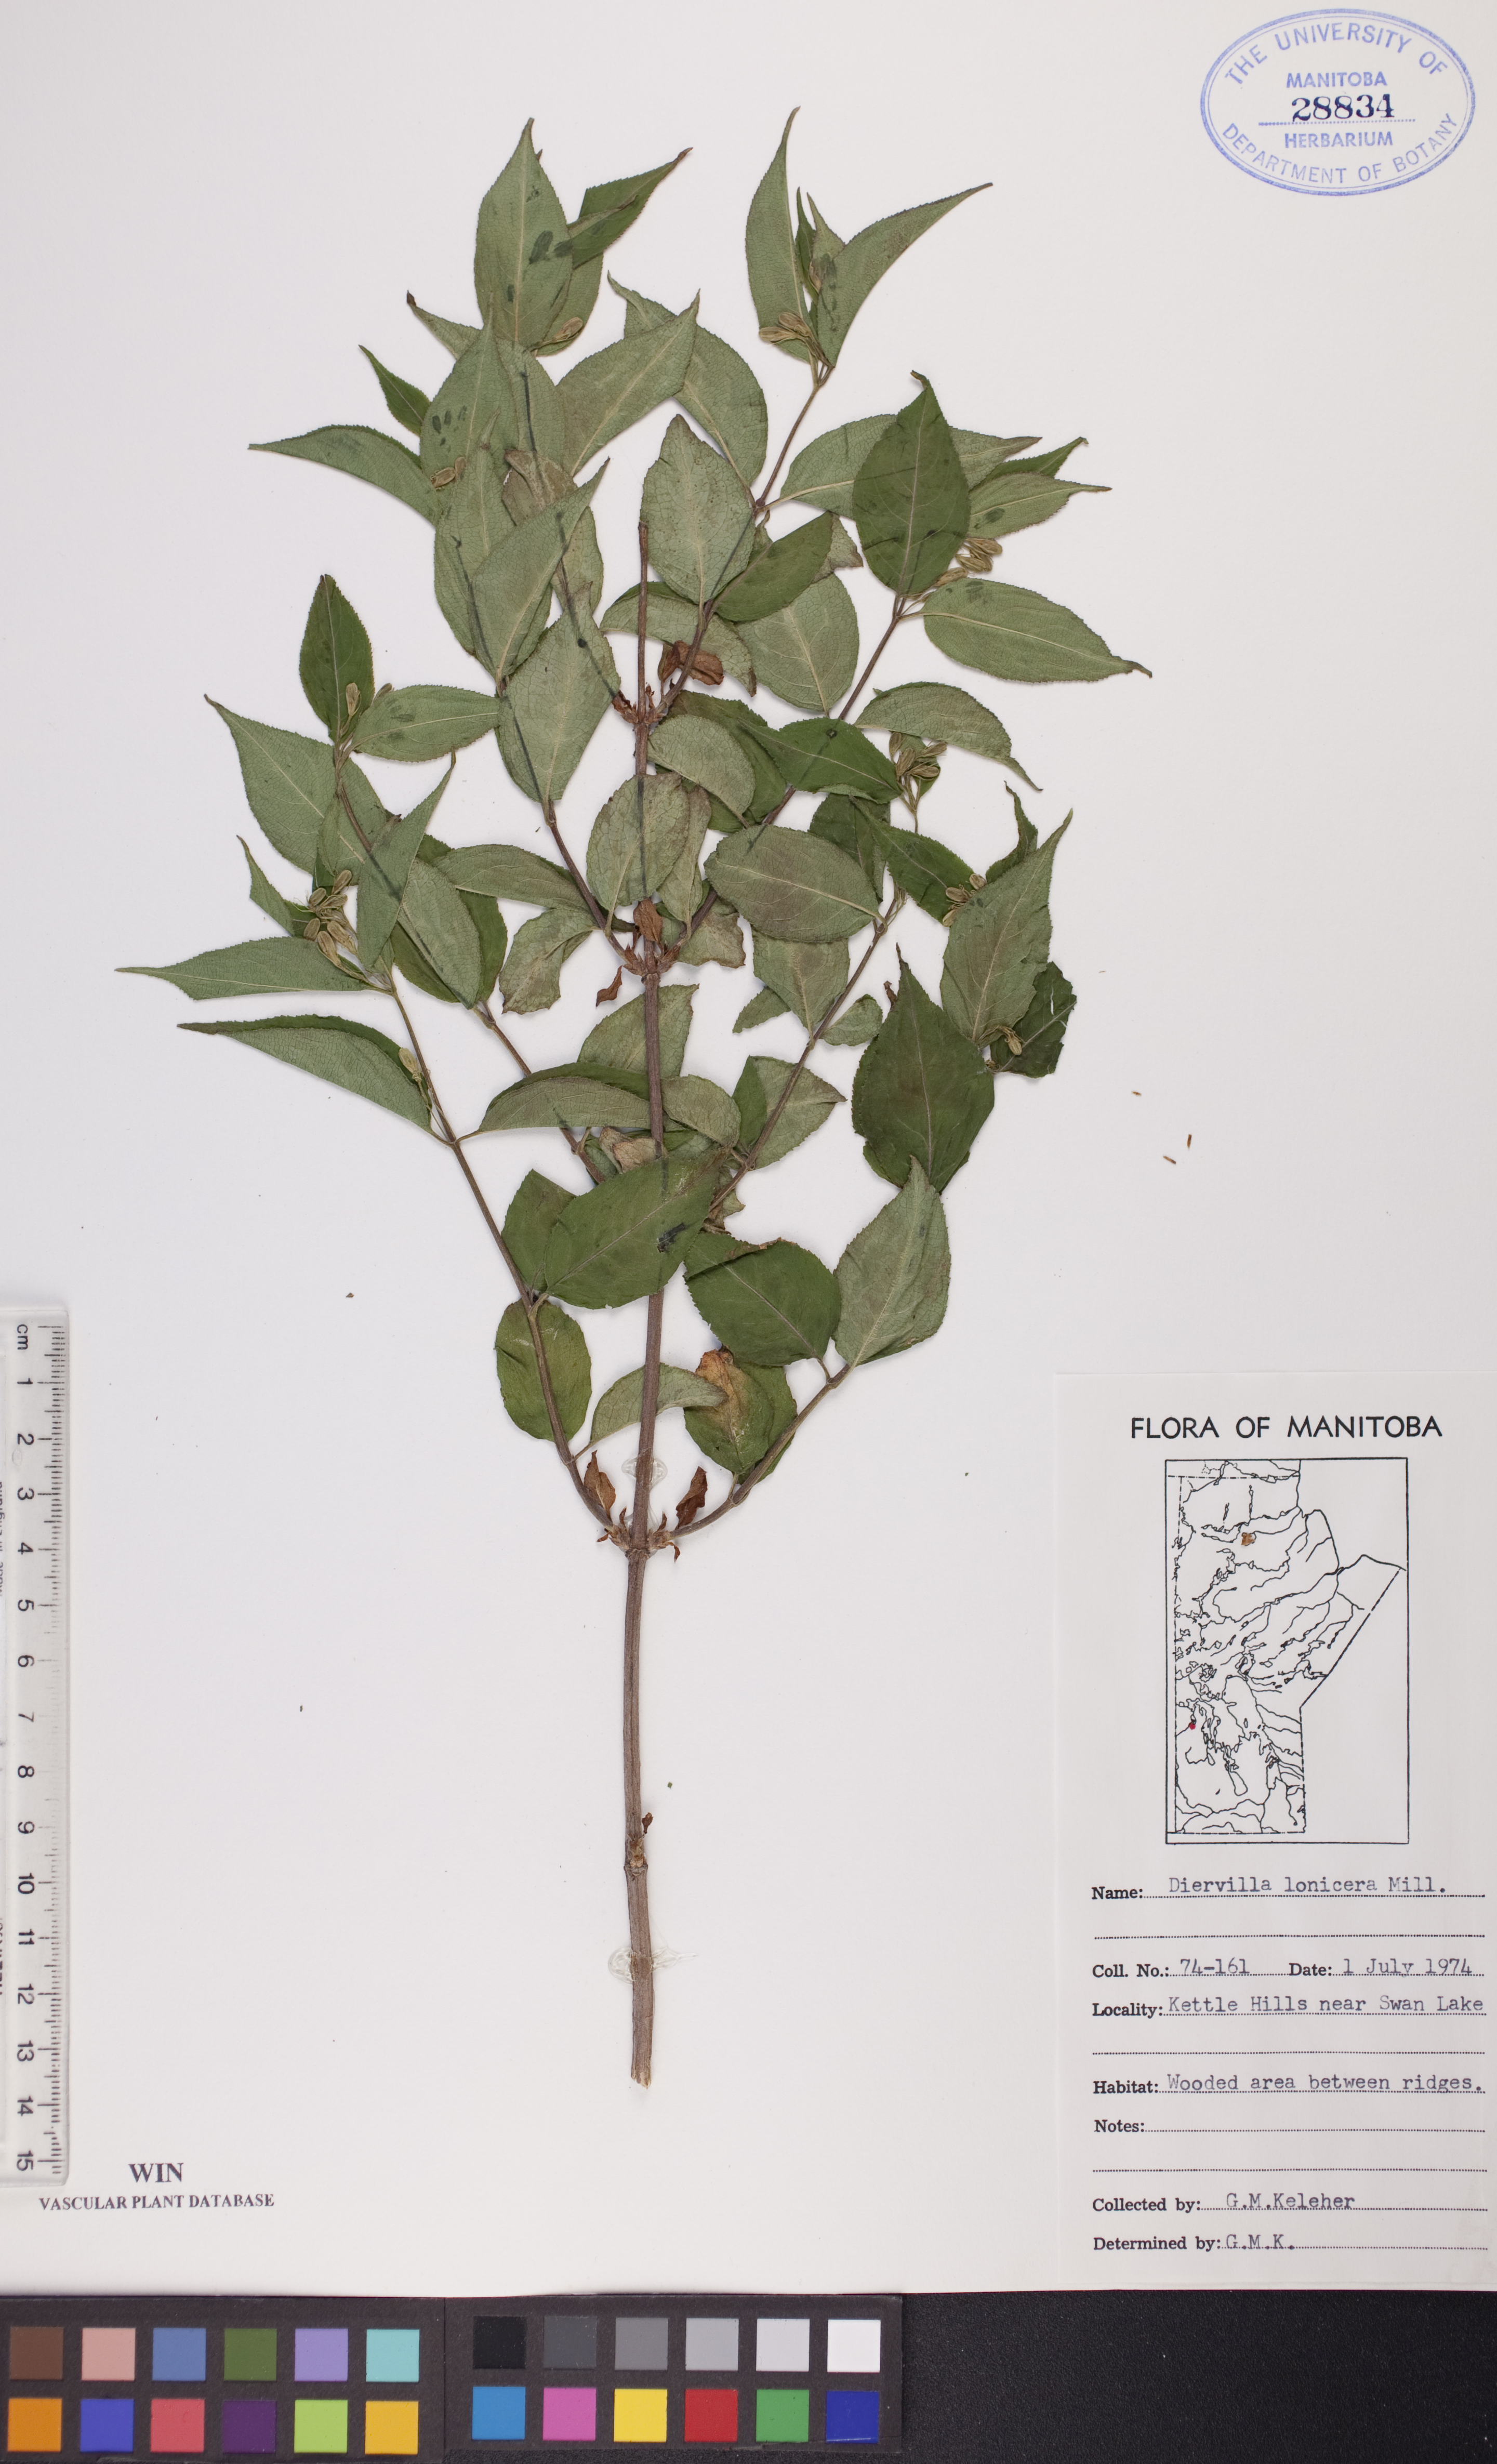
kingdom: Plantae
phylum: Tracheophyta
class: Magnoliopsida
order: Dipsacales
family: Caprifoliaceae
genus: Diervilla
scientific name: Diervilla lonicera
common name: Bush-honeysuckle
